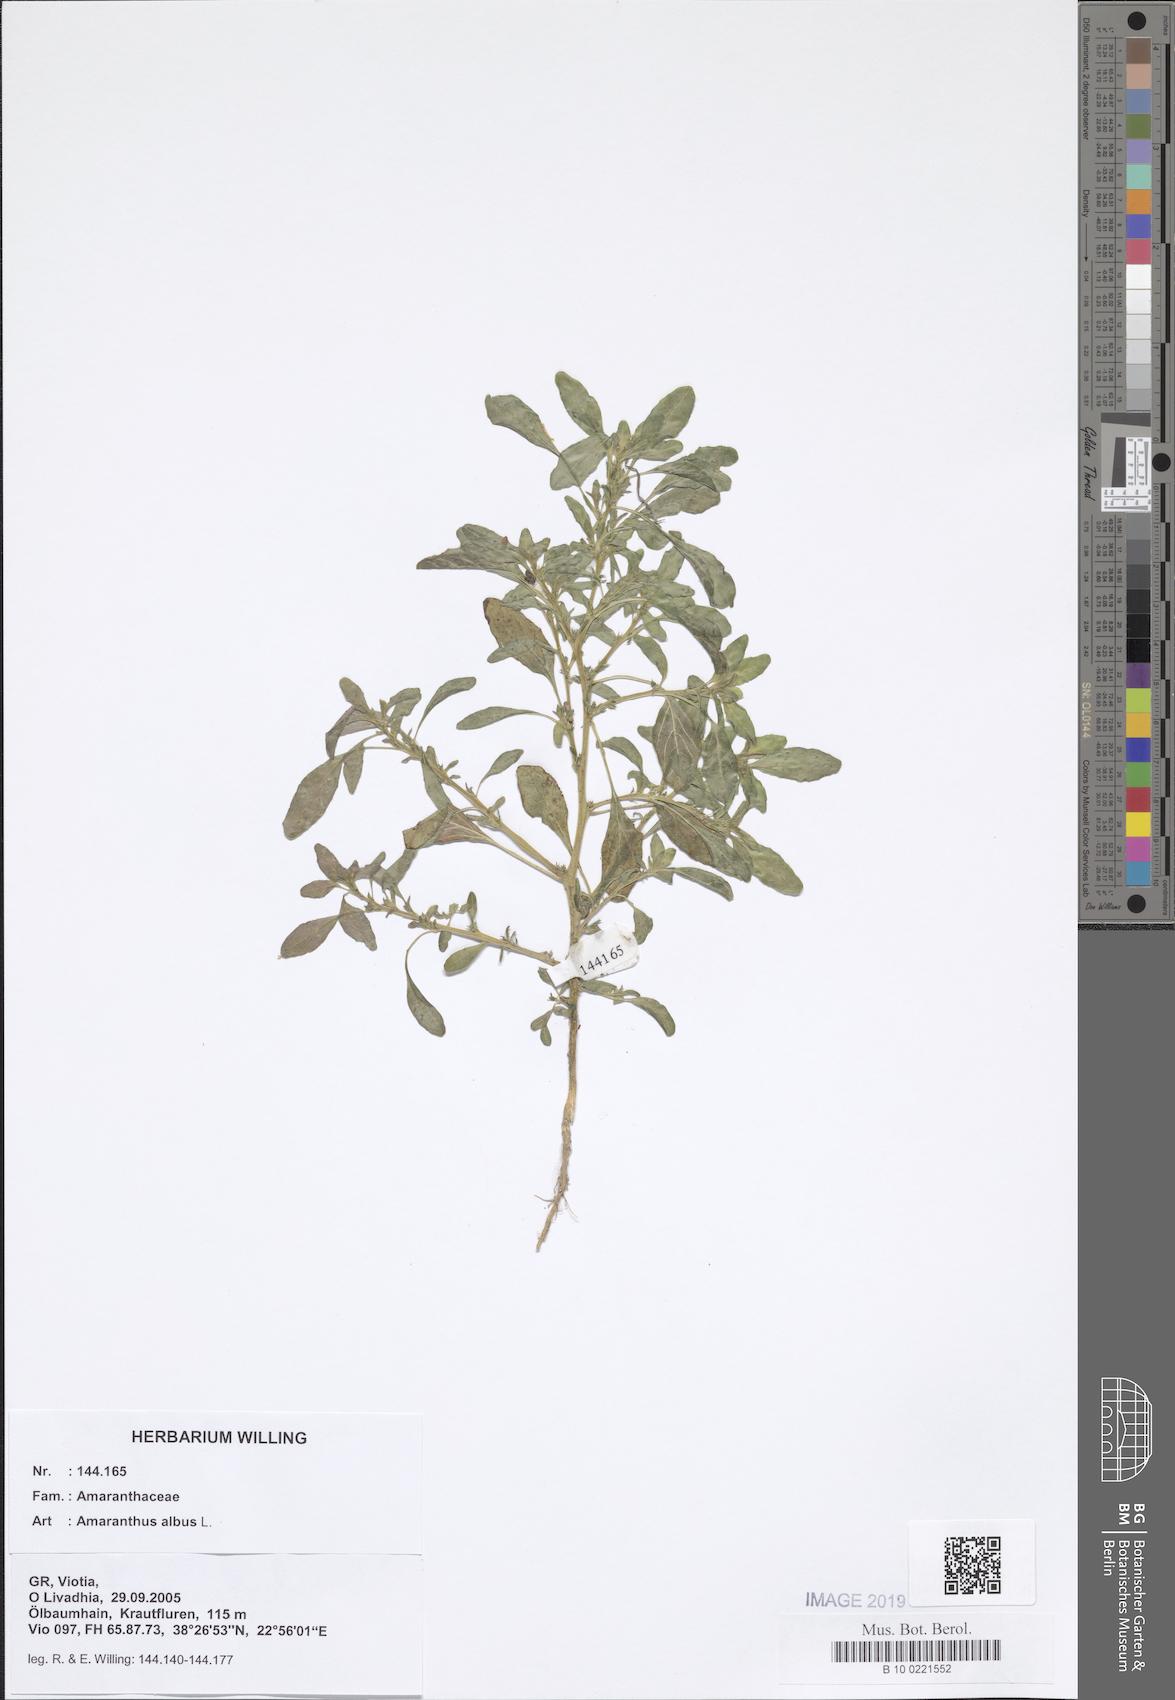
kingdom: Plantae
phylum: Tracheophyta
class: Magnoliopsida
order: Caryophyllales
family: Amaranthaceae
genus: Amaranthus
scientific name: Amaranthus albus
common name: White pigweed
